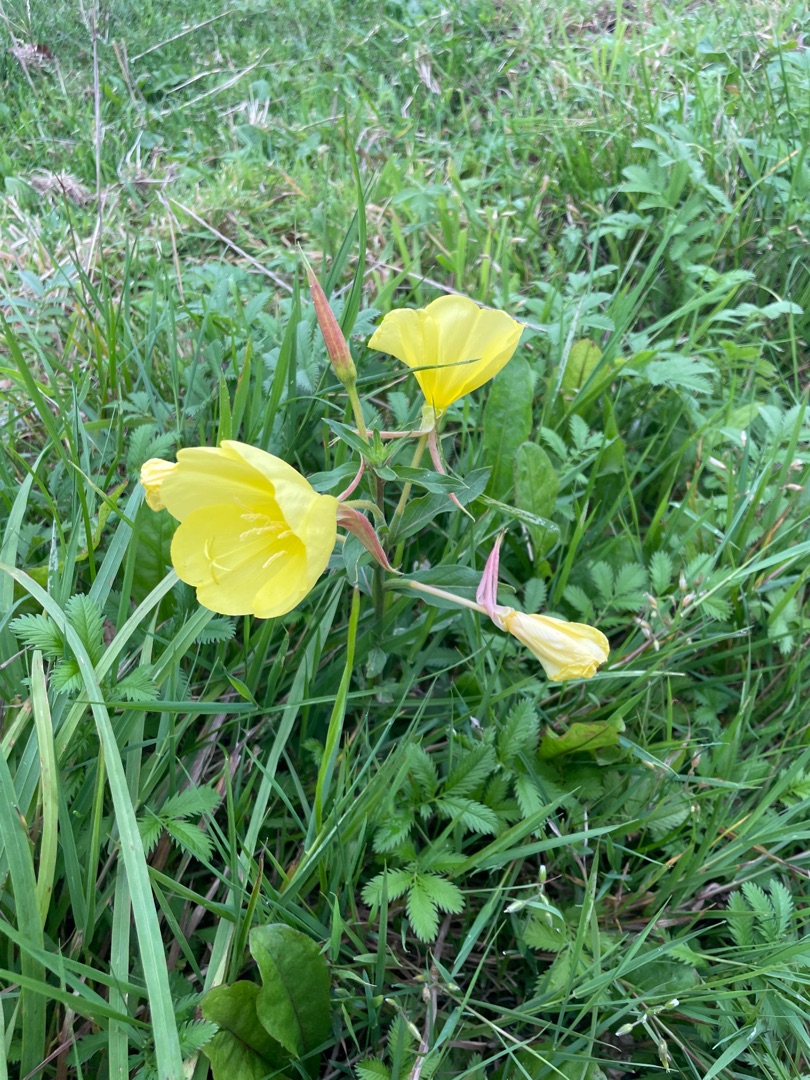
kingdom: Plantae
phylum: Tracheophyta
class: Magnoliopsida
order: Myrtales
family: Onagraceae
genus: Oenothera
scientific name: Oenothera glazioviana
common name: Kæmpe-natlys
